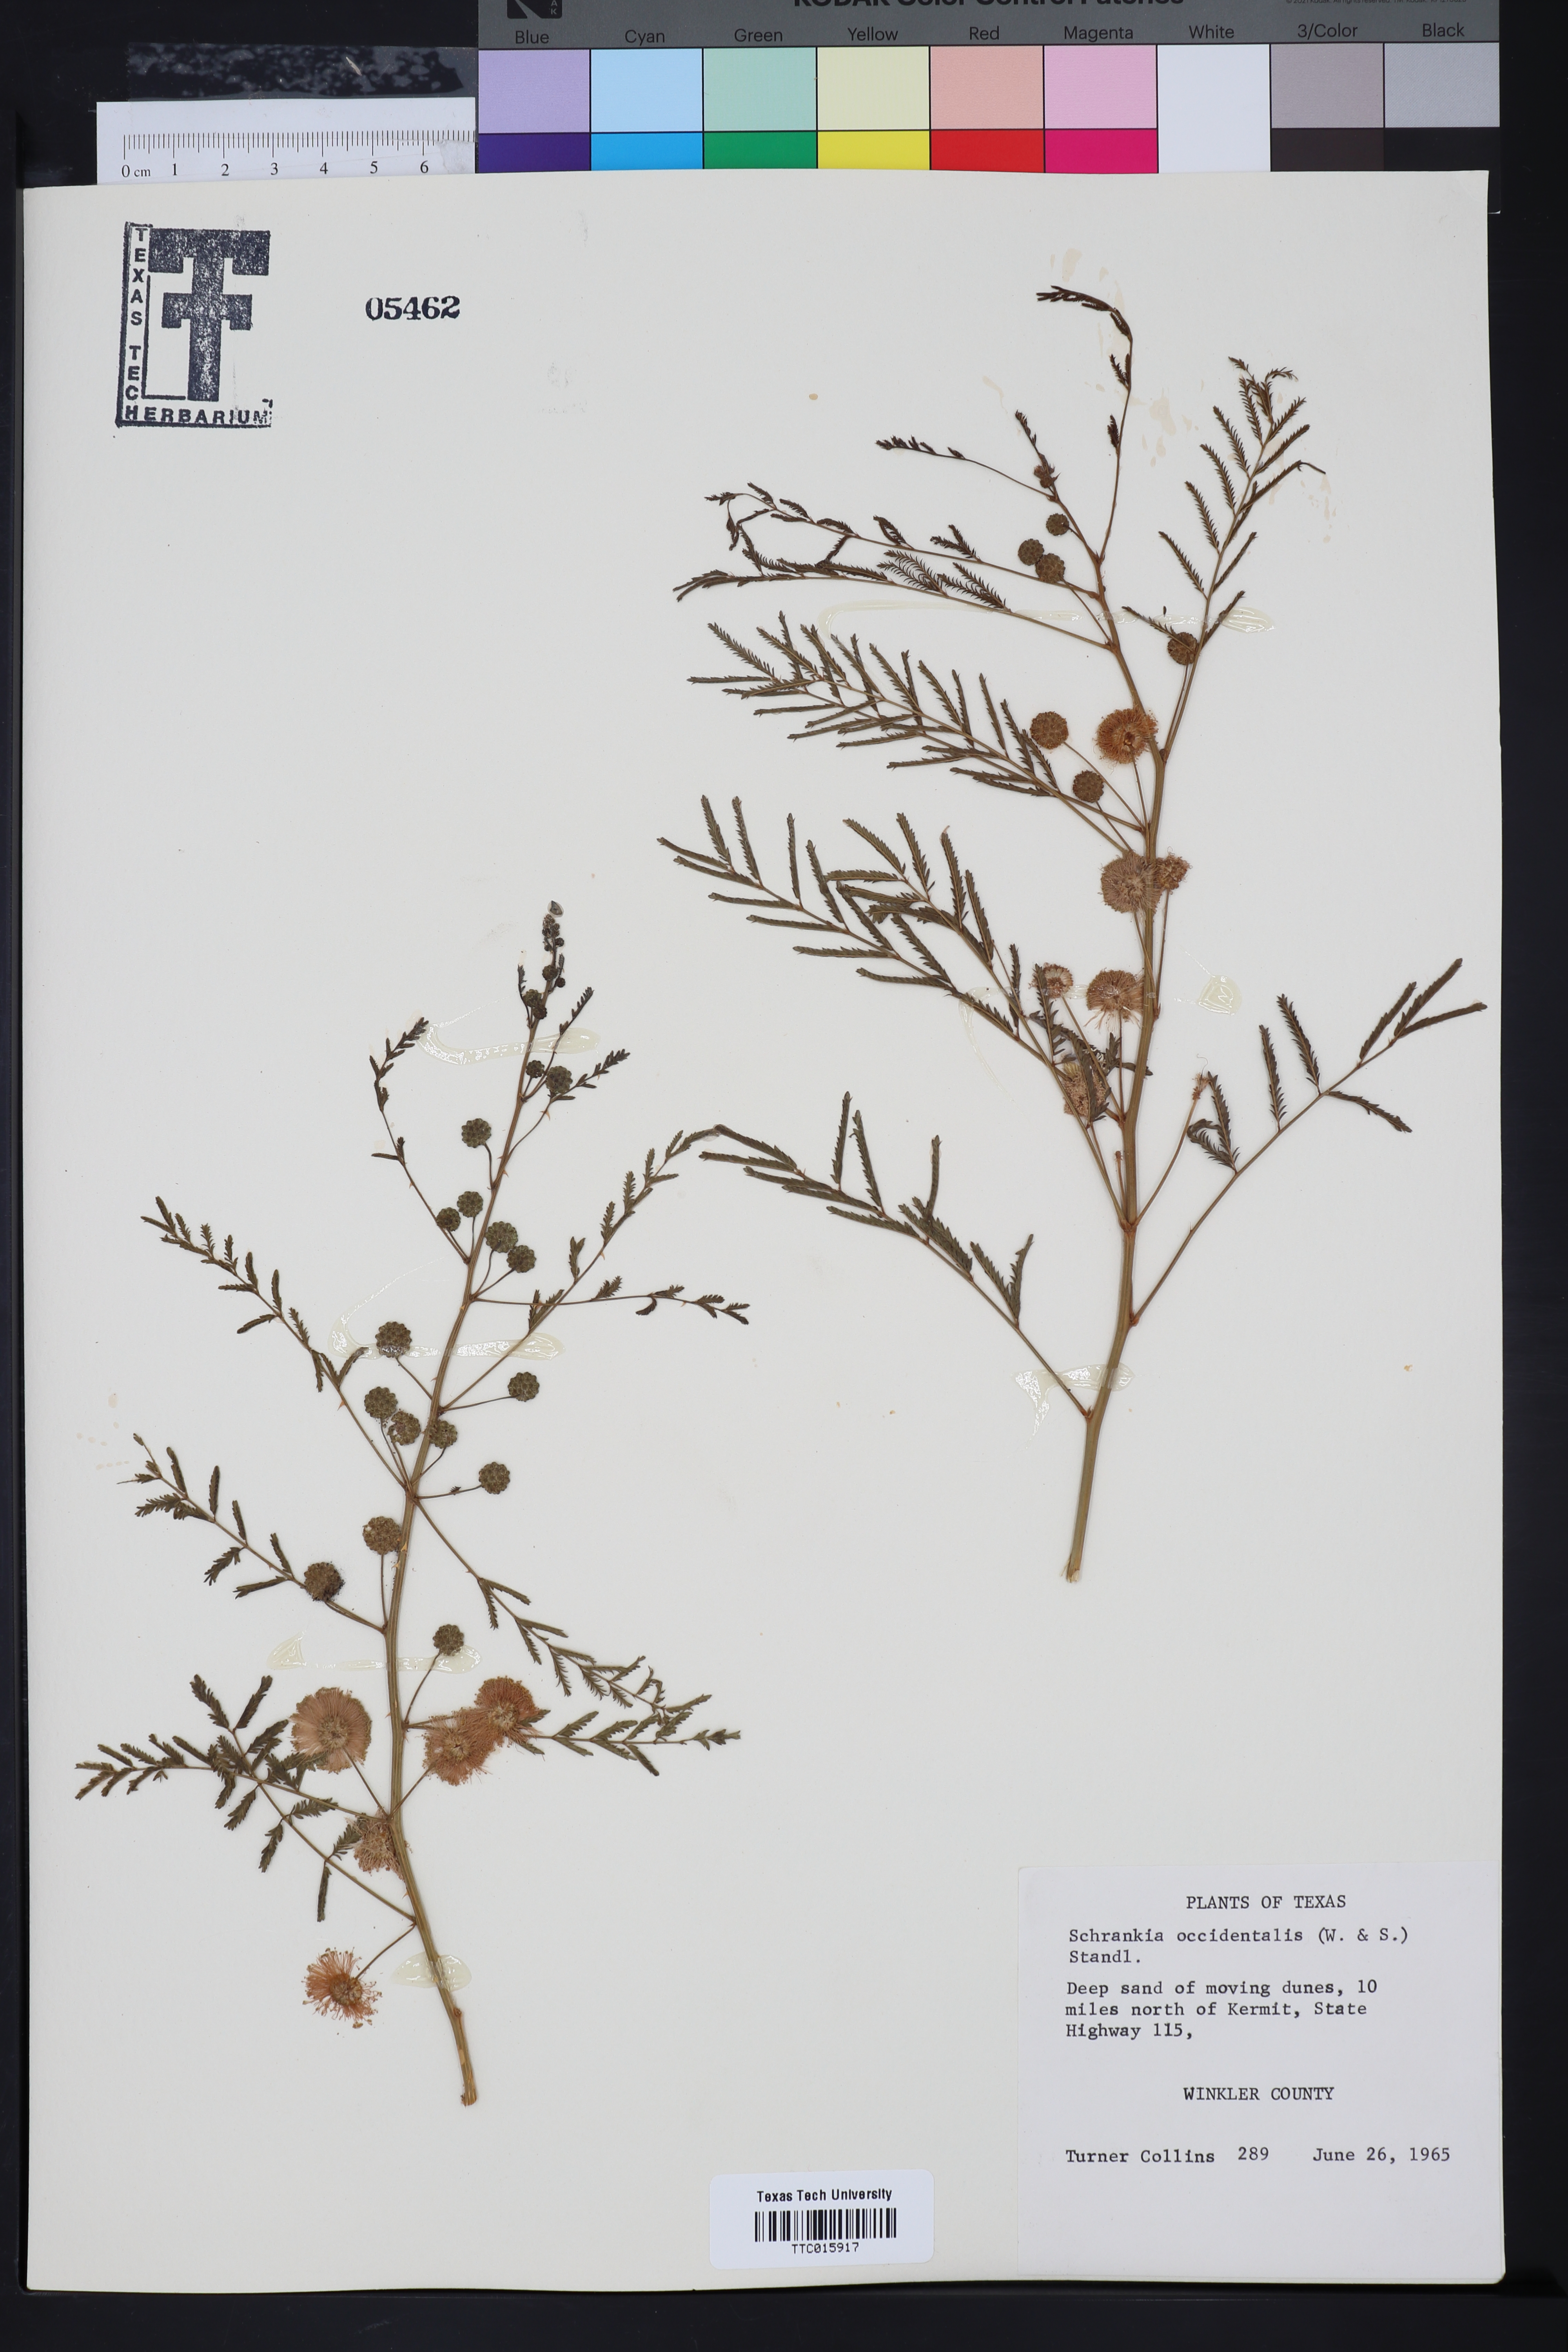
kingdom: Plantae
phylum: Tracheophyta
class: Magnoliopsida
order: Fabales
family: Fabaceae
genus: Mimosa
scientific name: Mimosa quadrivalvis
